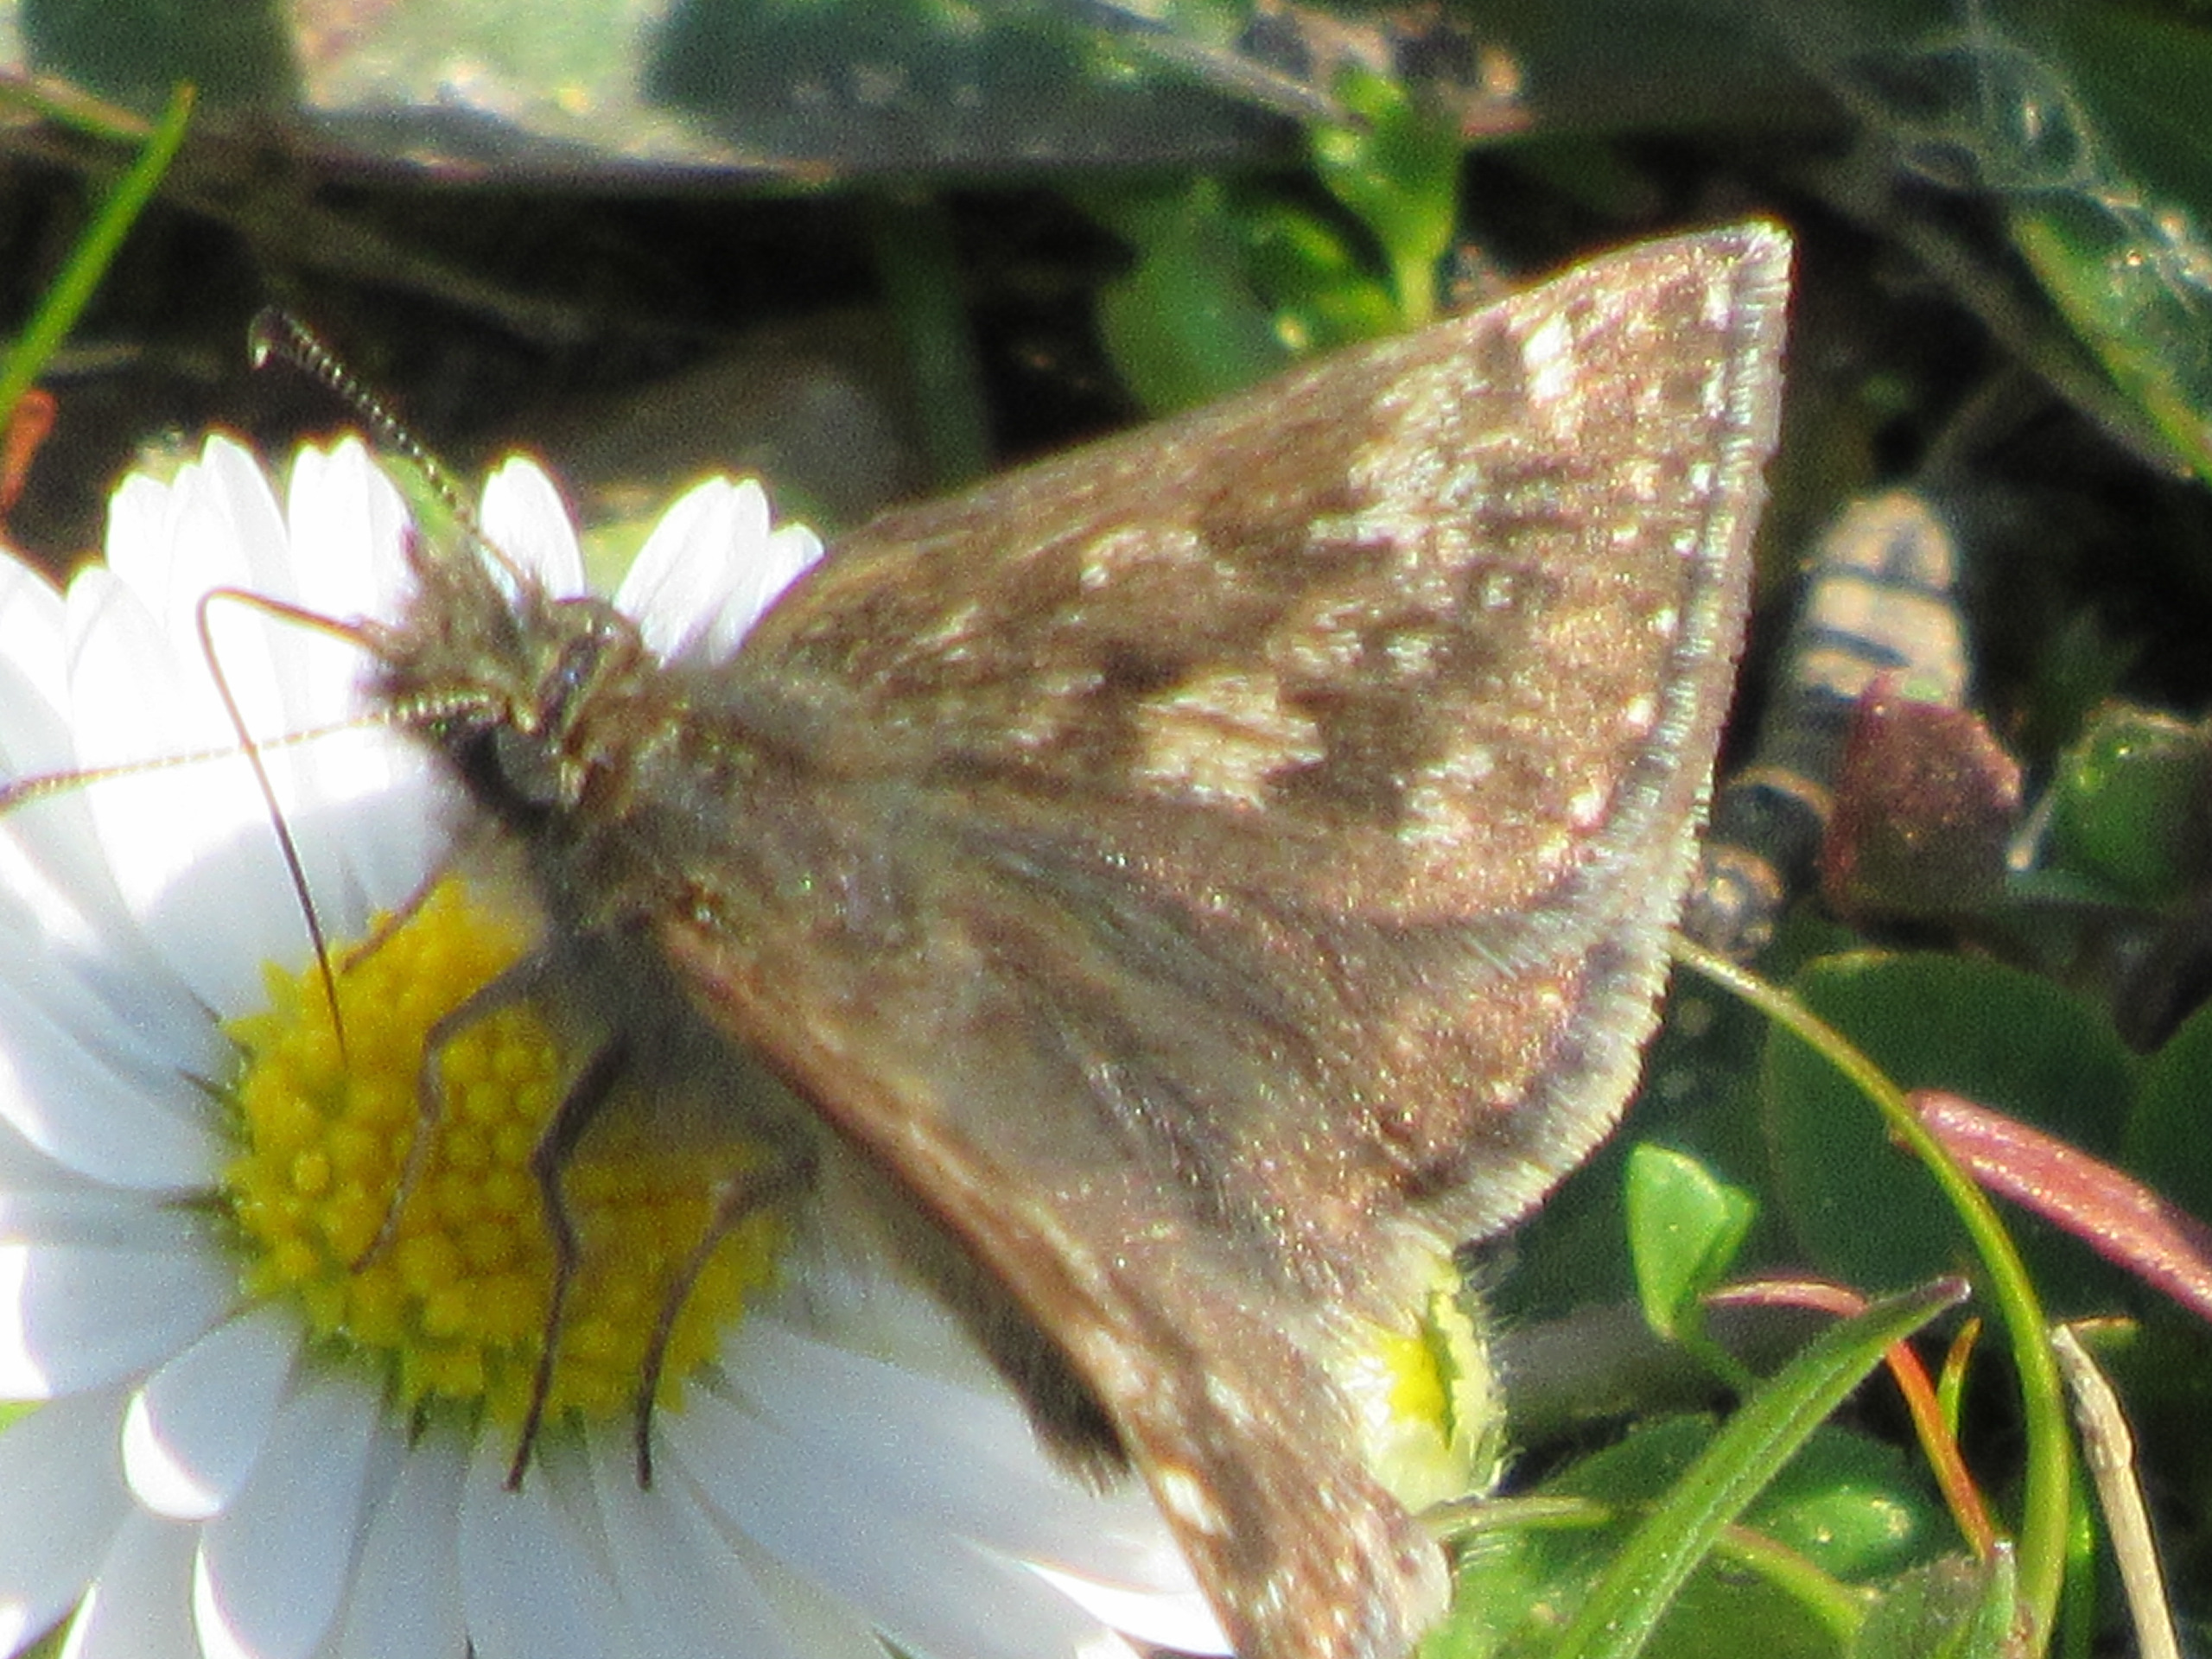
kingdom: Animalia
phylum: Arthropoda
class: Insecta
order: Lepidoptera
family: Hesperiidae
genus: Erynnis
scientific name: Erynnis tages
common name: Gråbåndet bredpande
